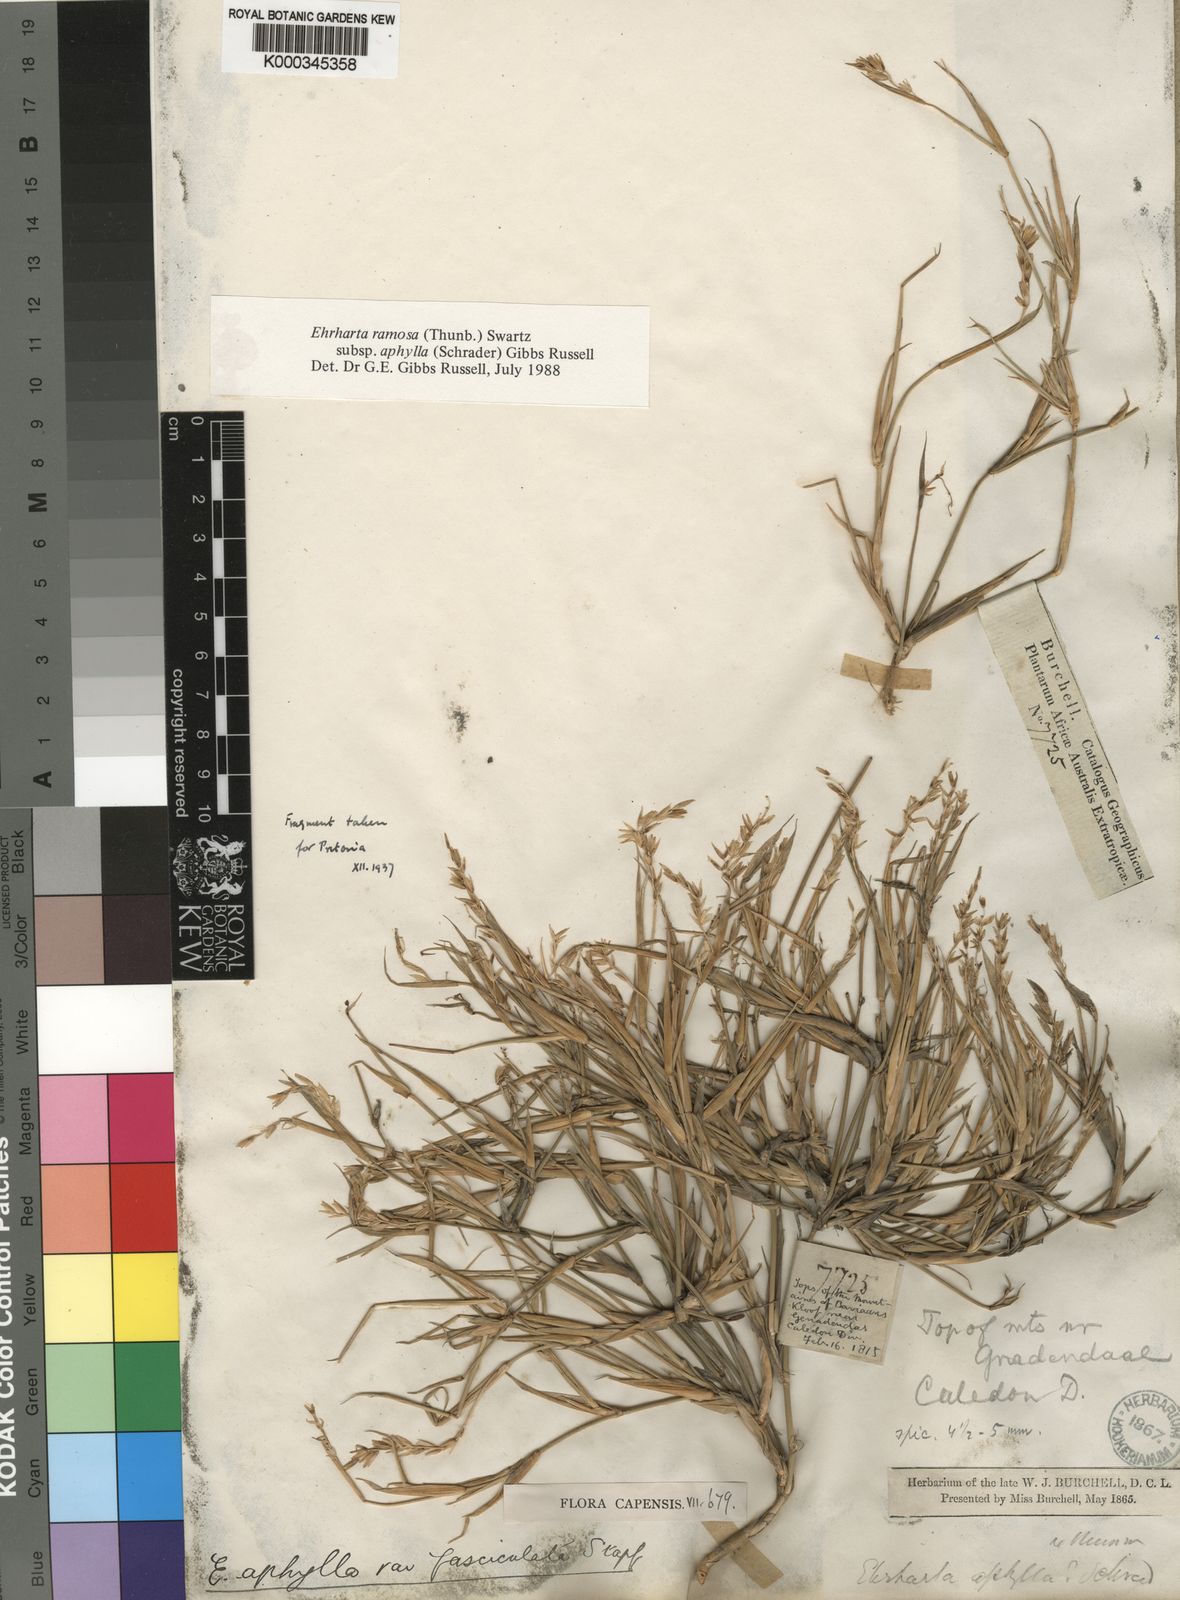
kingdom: Plantae
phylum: Tracheophyta
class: Liliopsida
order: Poales
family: Poaceae
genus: Ehrharta
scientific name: Ehrharta ramosa
